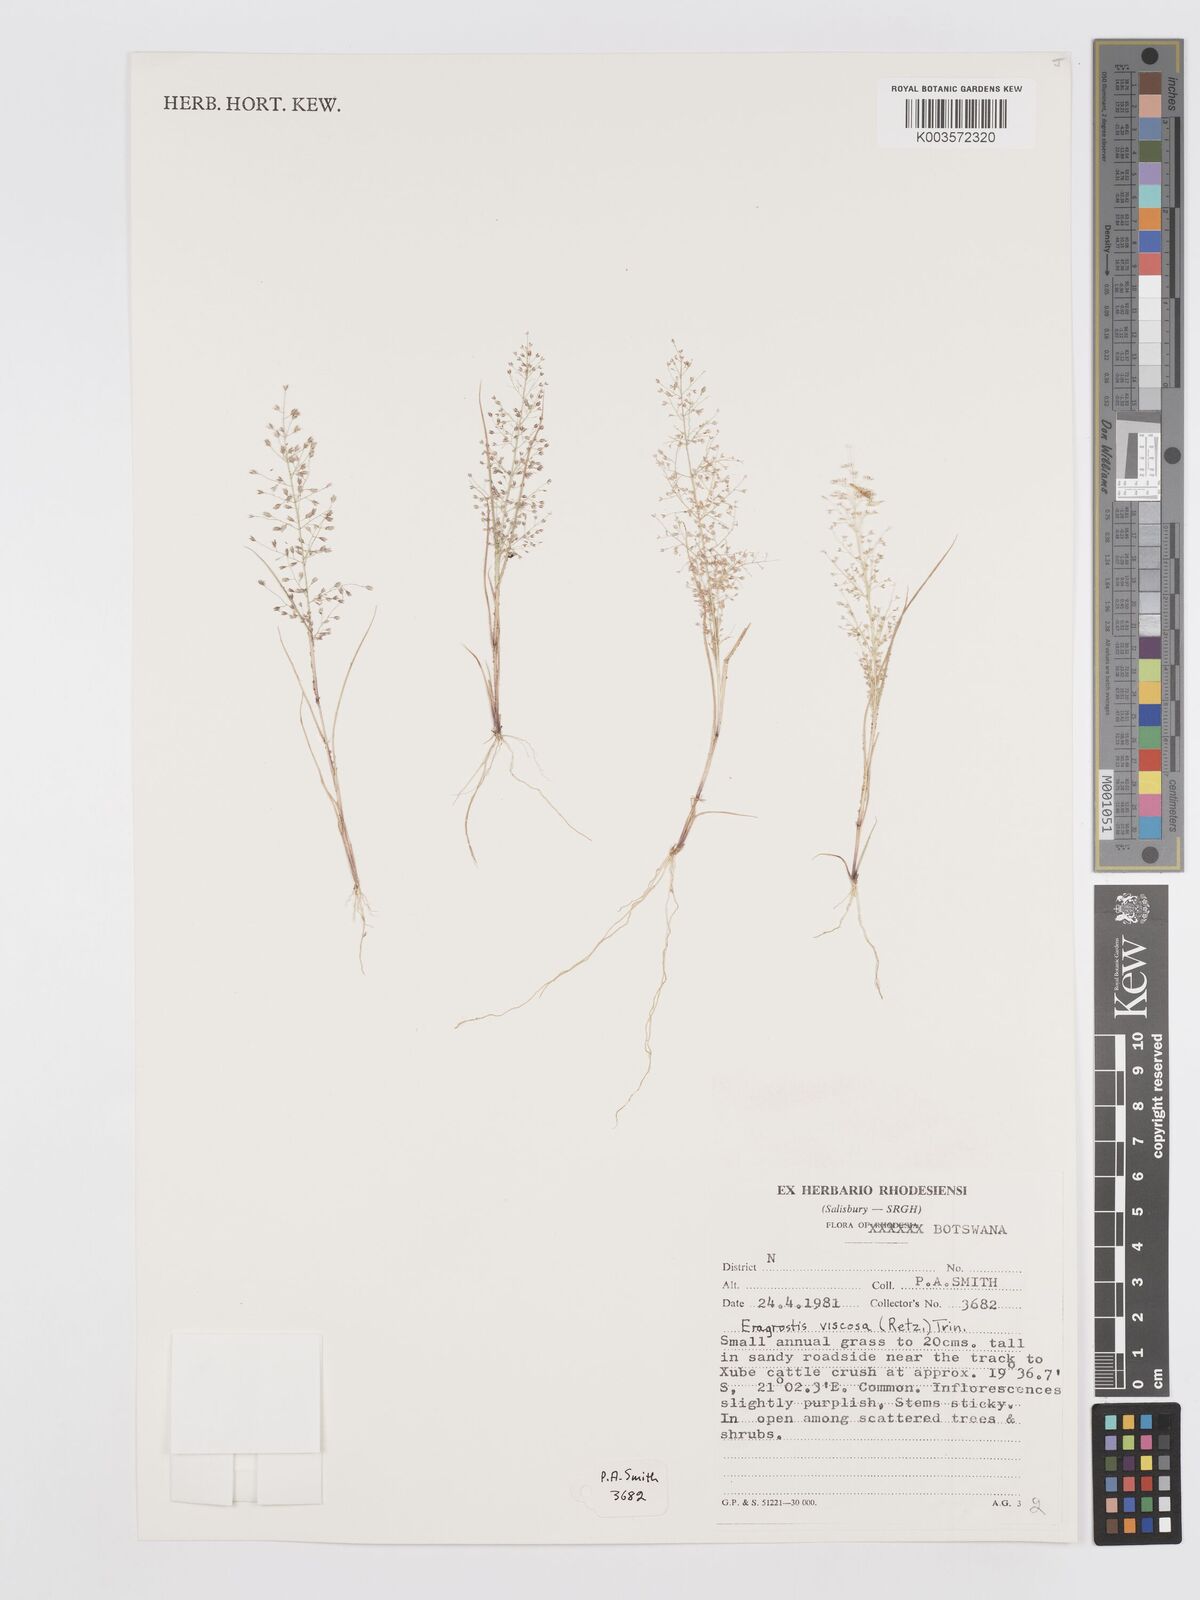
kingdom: Plantae
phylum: Tracheophyta
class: Liliopsida
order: Poales
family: Poaceae
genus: Eragrostis
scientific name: Eragrostis
